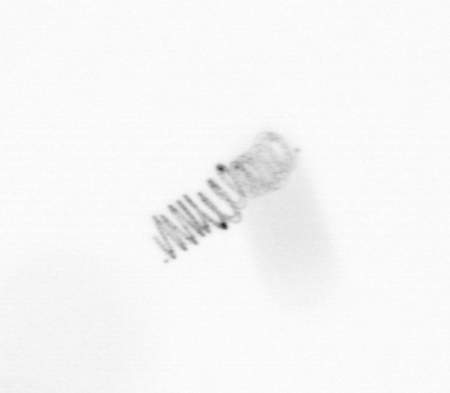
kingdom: Chromista
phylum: Ochrophyta
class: Bacillariophyceae
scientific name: Bacillariophyceae
